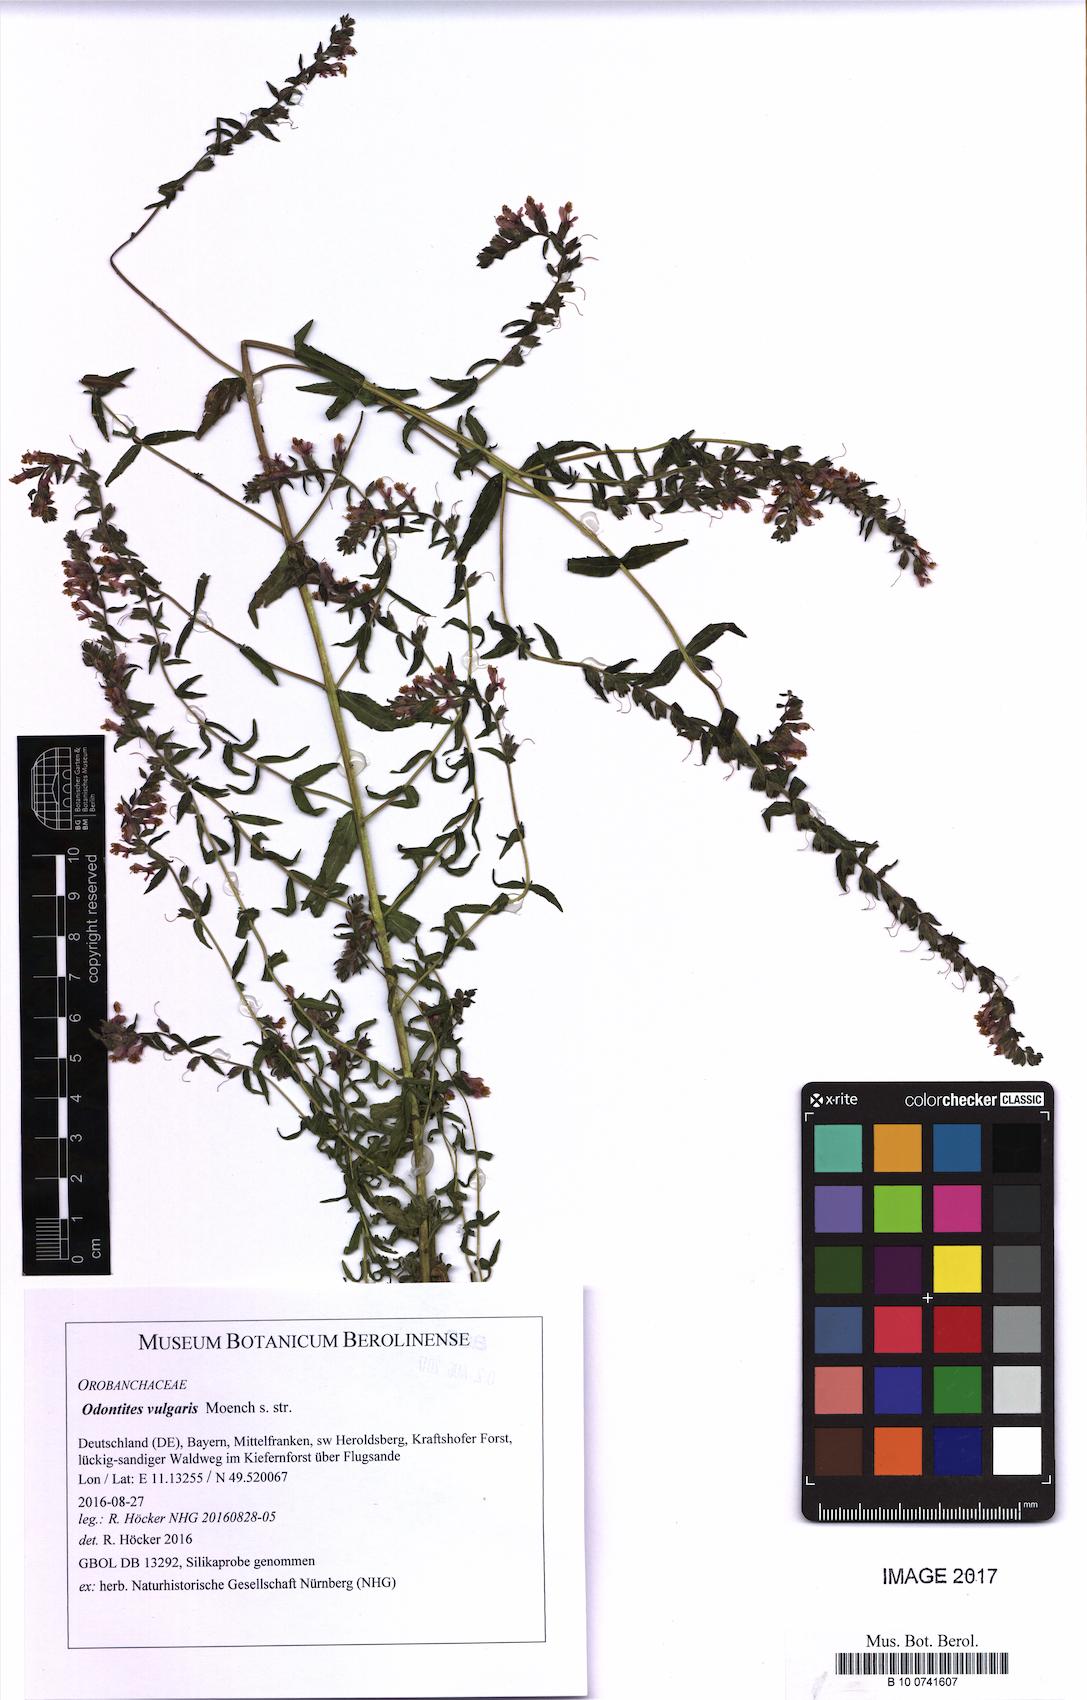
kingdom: Plantae
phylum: Tracheophyta
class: Magnoliopsida
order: Lamiales
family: Orobanchaceae
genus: Odontites
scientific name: Odontites vulgaris
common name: Broomrape
